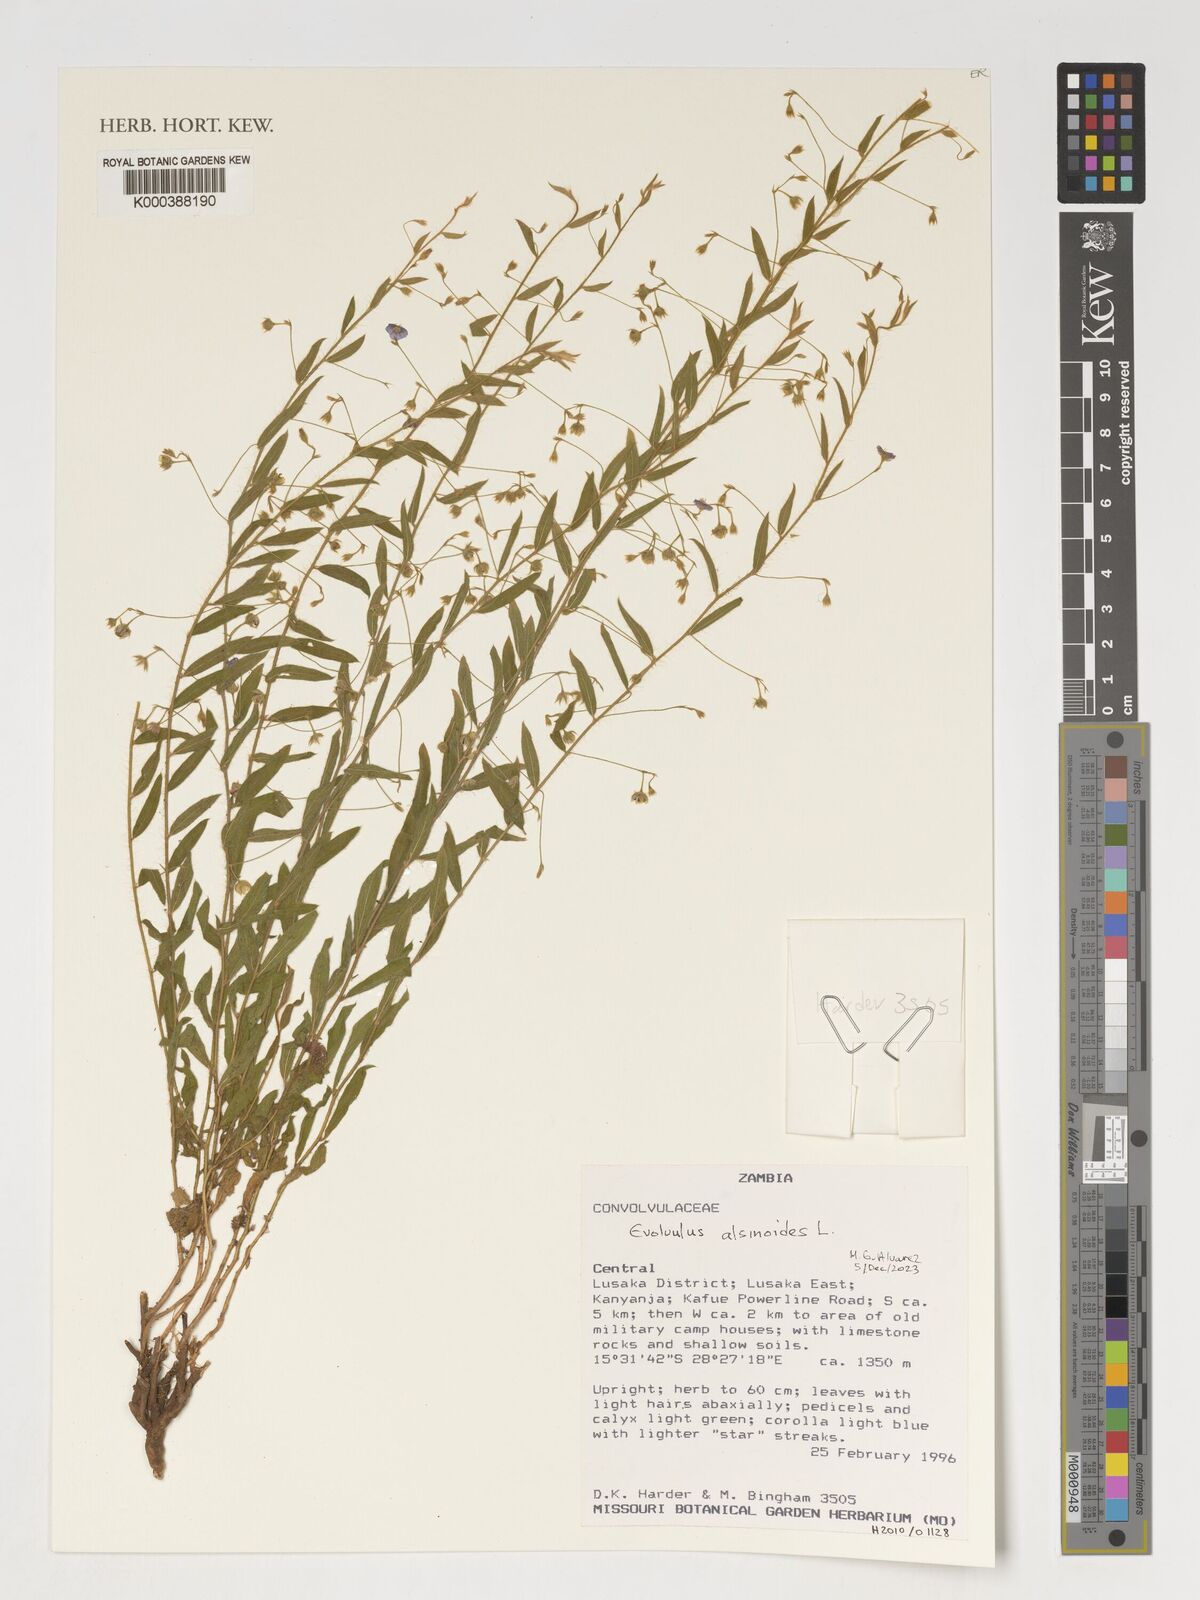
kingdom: Plantae
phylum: Tracheophyta
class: Magnoliopsida
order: Solanales
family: Convolvulaceae
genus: Evolvulus
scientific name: Evolvulus alsinoides
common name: Slender dwarf morning-glory
